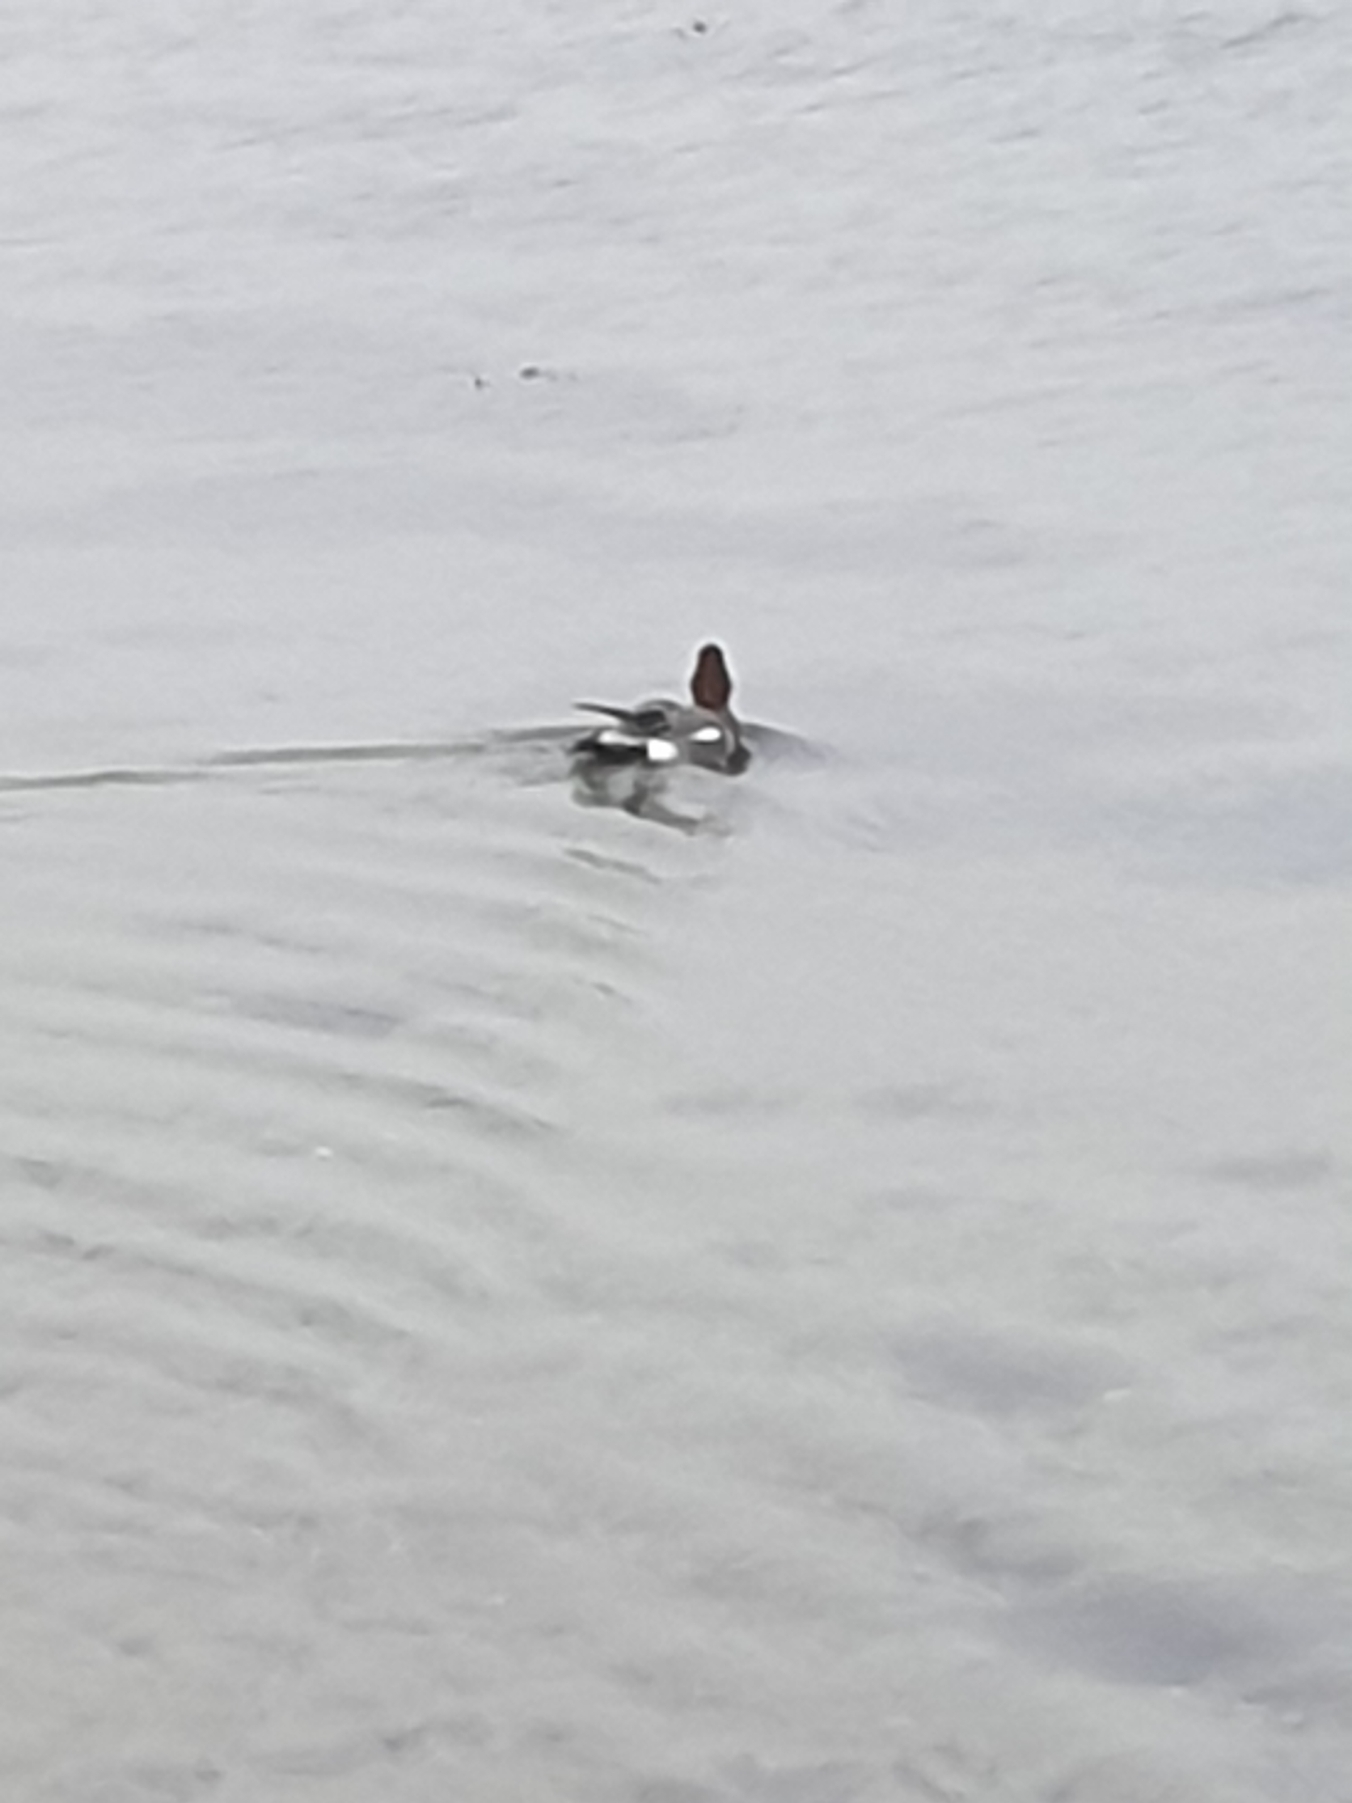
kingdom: Animalia
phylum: Chordata
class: Aves
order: Anseriformes
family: Anatidae
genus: Mareca
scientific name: Mareca penelope
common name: Pibeand
